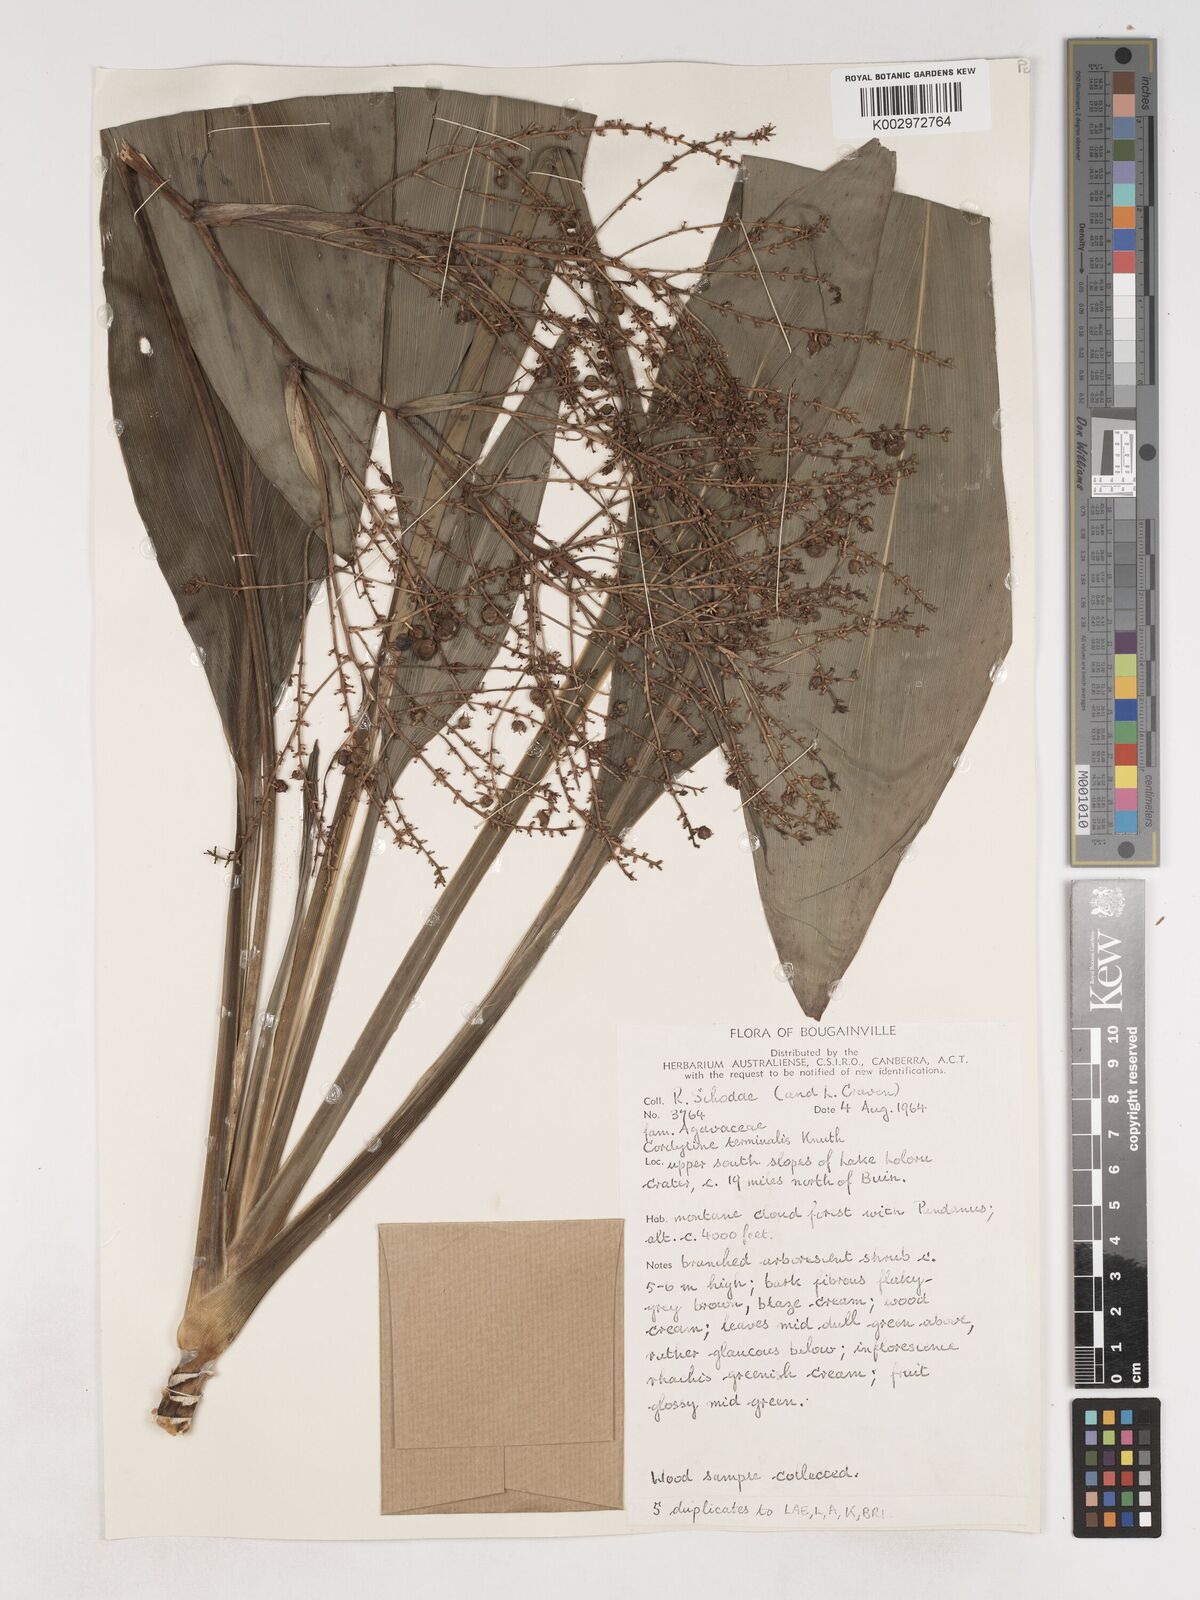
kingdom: Plantae
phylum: Tracheophyta
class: Liliopsida
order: Asparagales
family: Asparagaceae
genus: Cordyline
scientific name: Cordyline fruticosa
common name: Good-luck-plant
